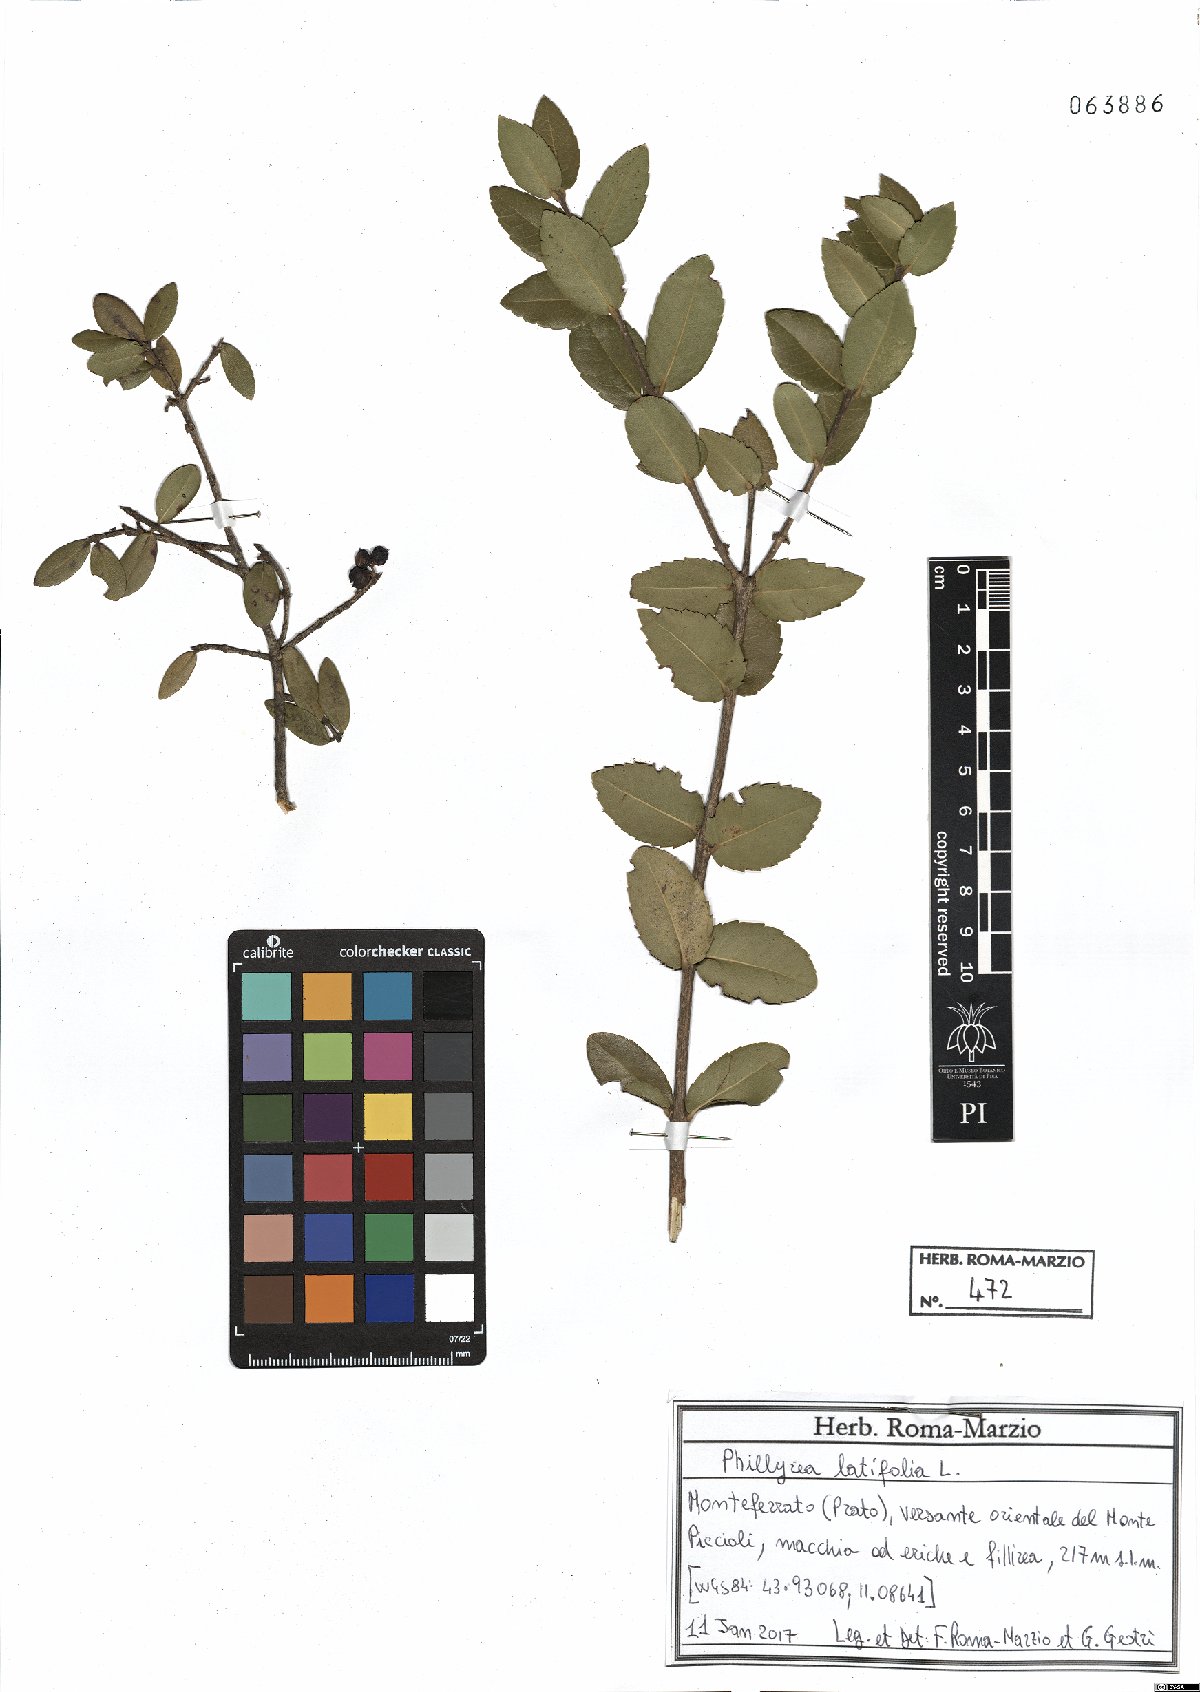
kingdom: Plantae
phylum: Tracheophyta
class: Magnoliopsida
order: Lamiales
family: Oleaceae
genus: Phillyrea
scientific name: Phillyrea latifolia
